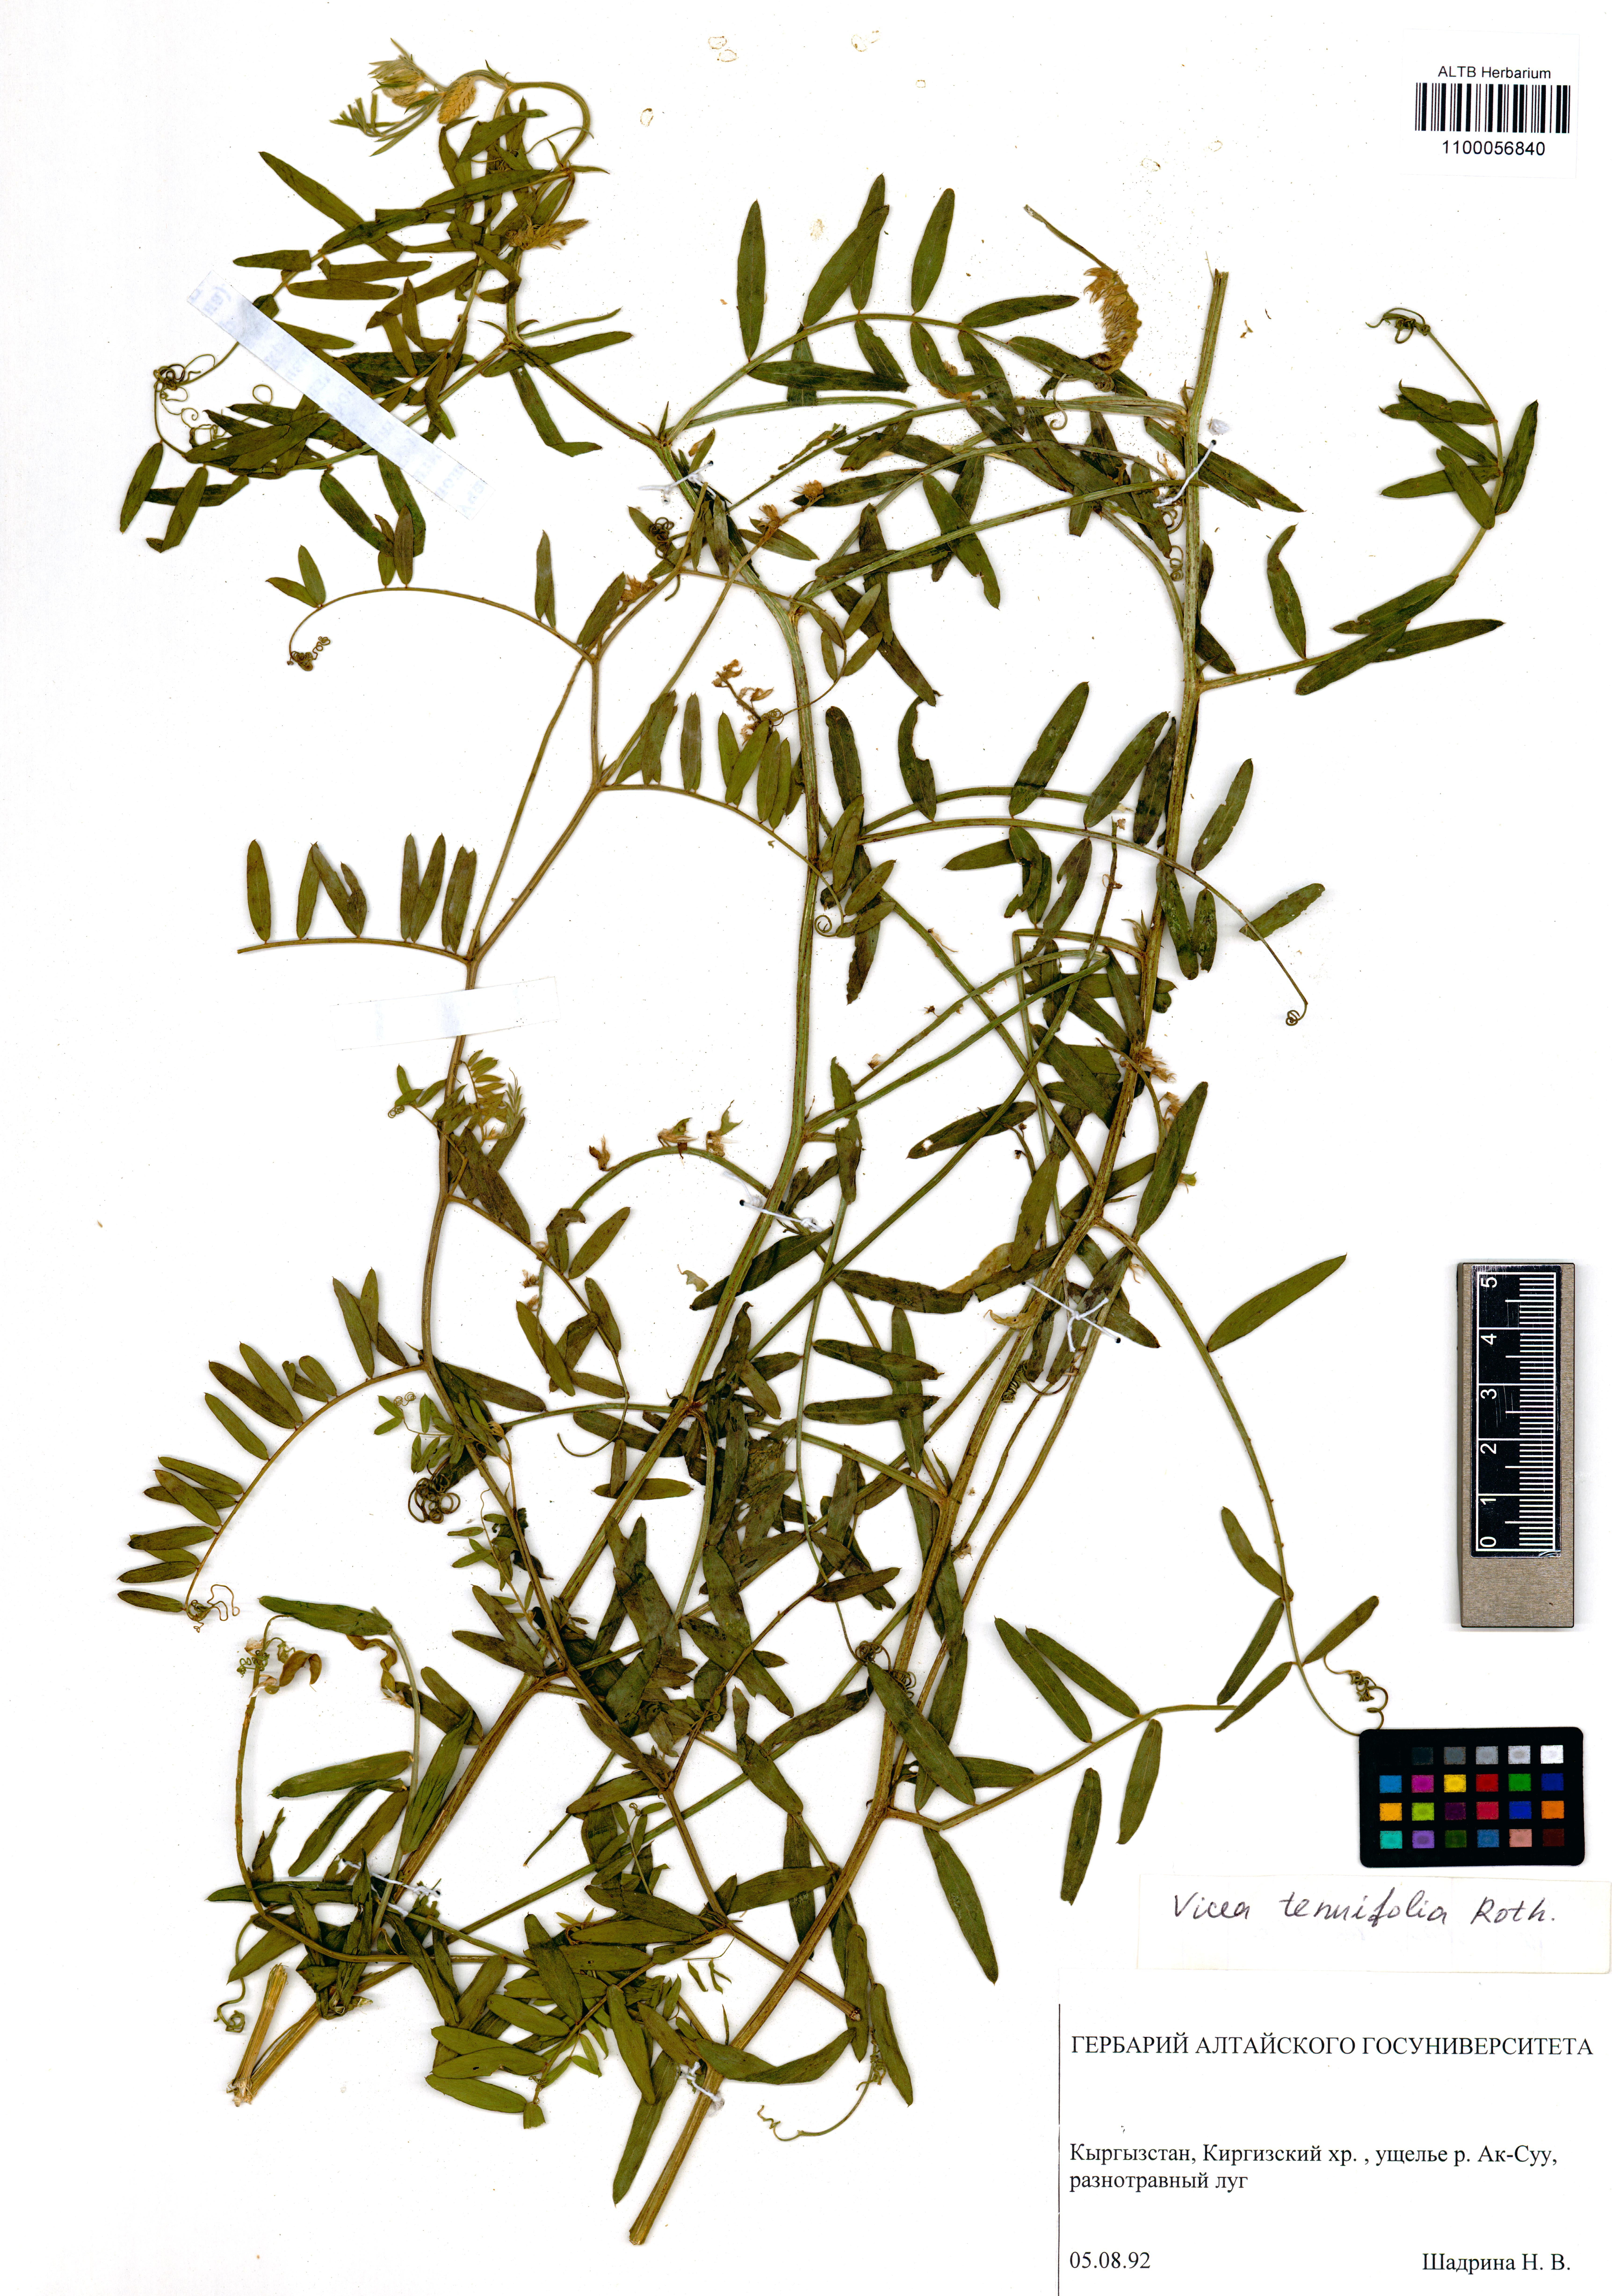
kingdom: Plantae
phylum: Tracheophyta
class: Magnoliopsida
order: Fabales
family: Fabaceae
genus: Vicia
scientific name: Vicia tenuifolia
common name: Fine-leaved vetch
